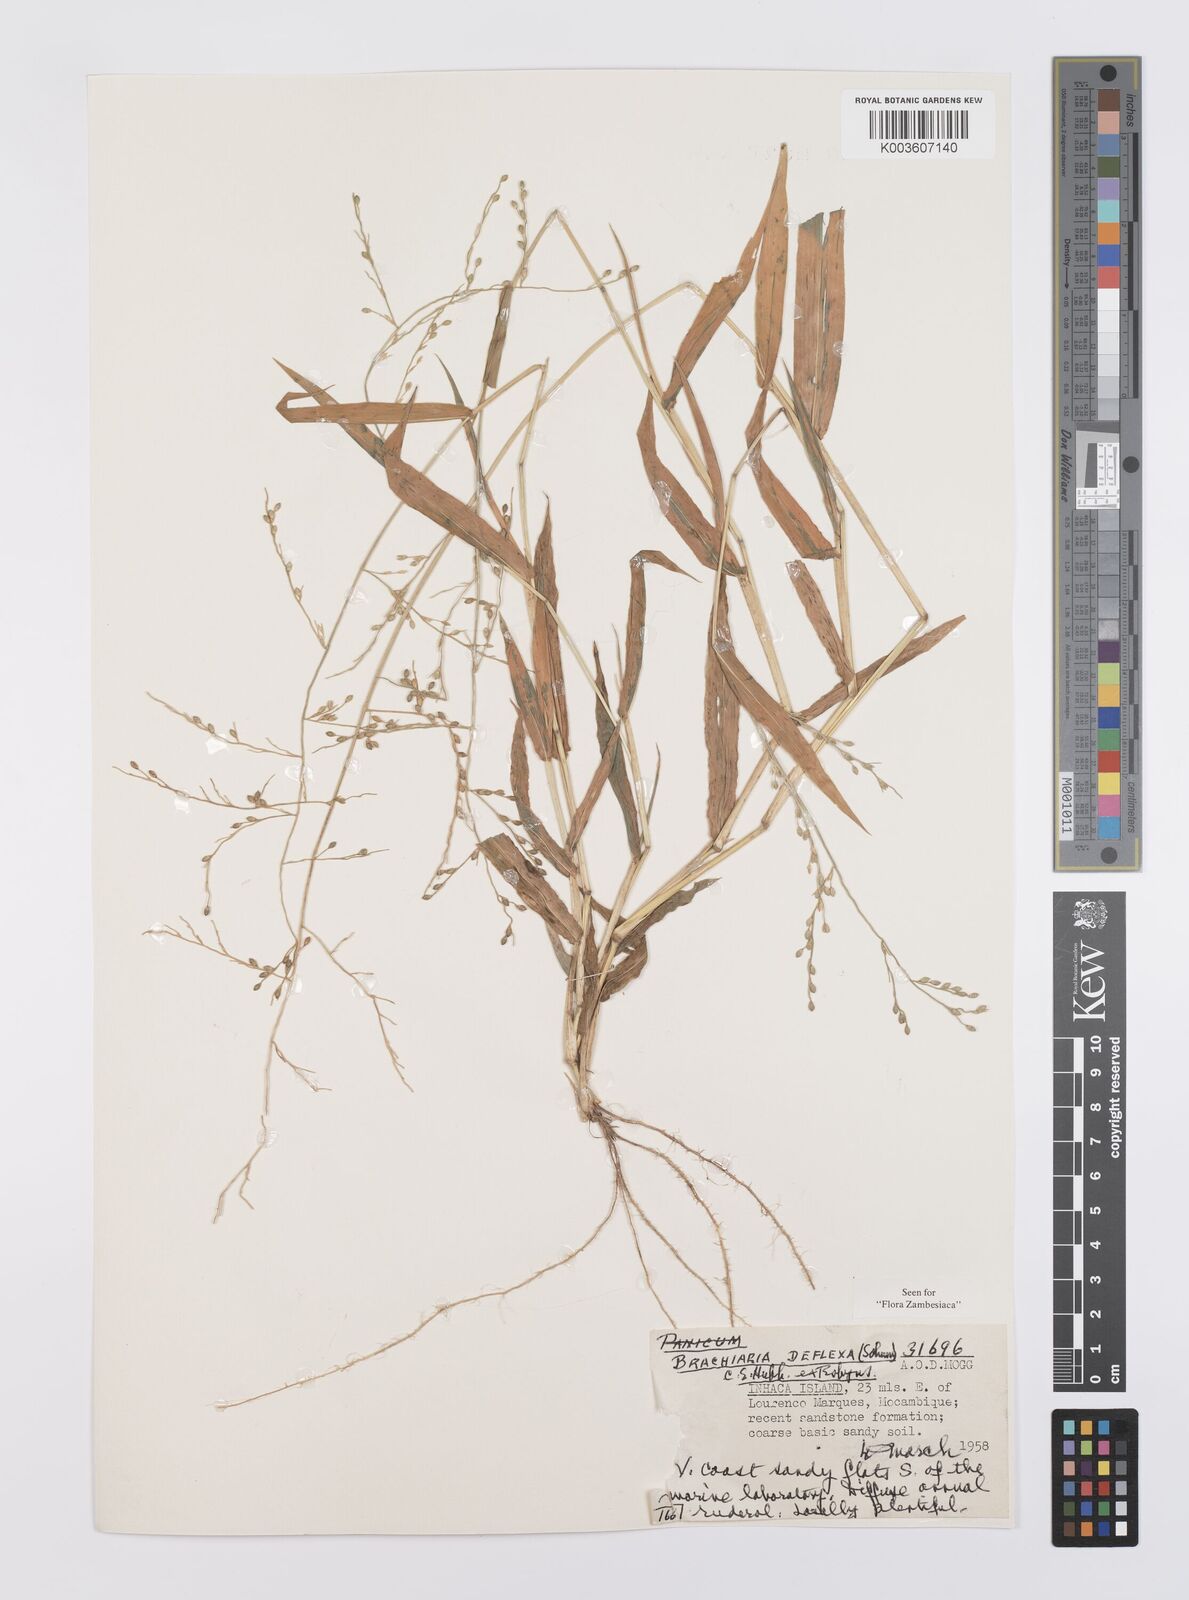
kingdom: Plantae
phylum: Tracheophyta
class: Liliopsida
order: Poales
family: Poaceae
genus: Urochloa
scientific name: Urochloa deflexa
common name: Guinea millet
